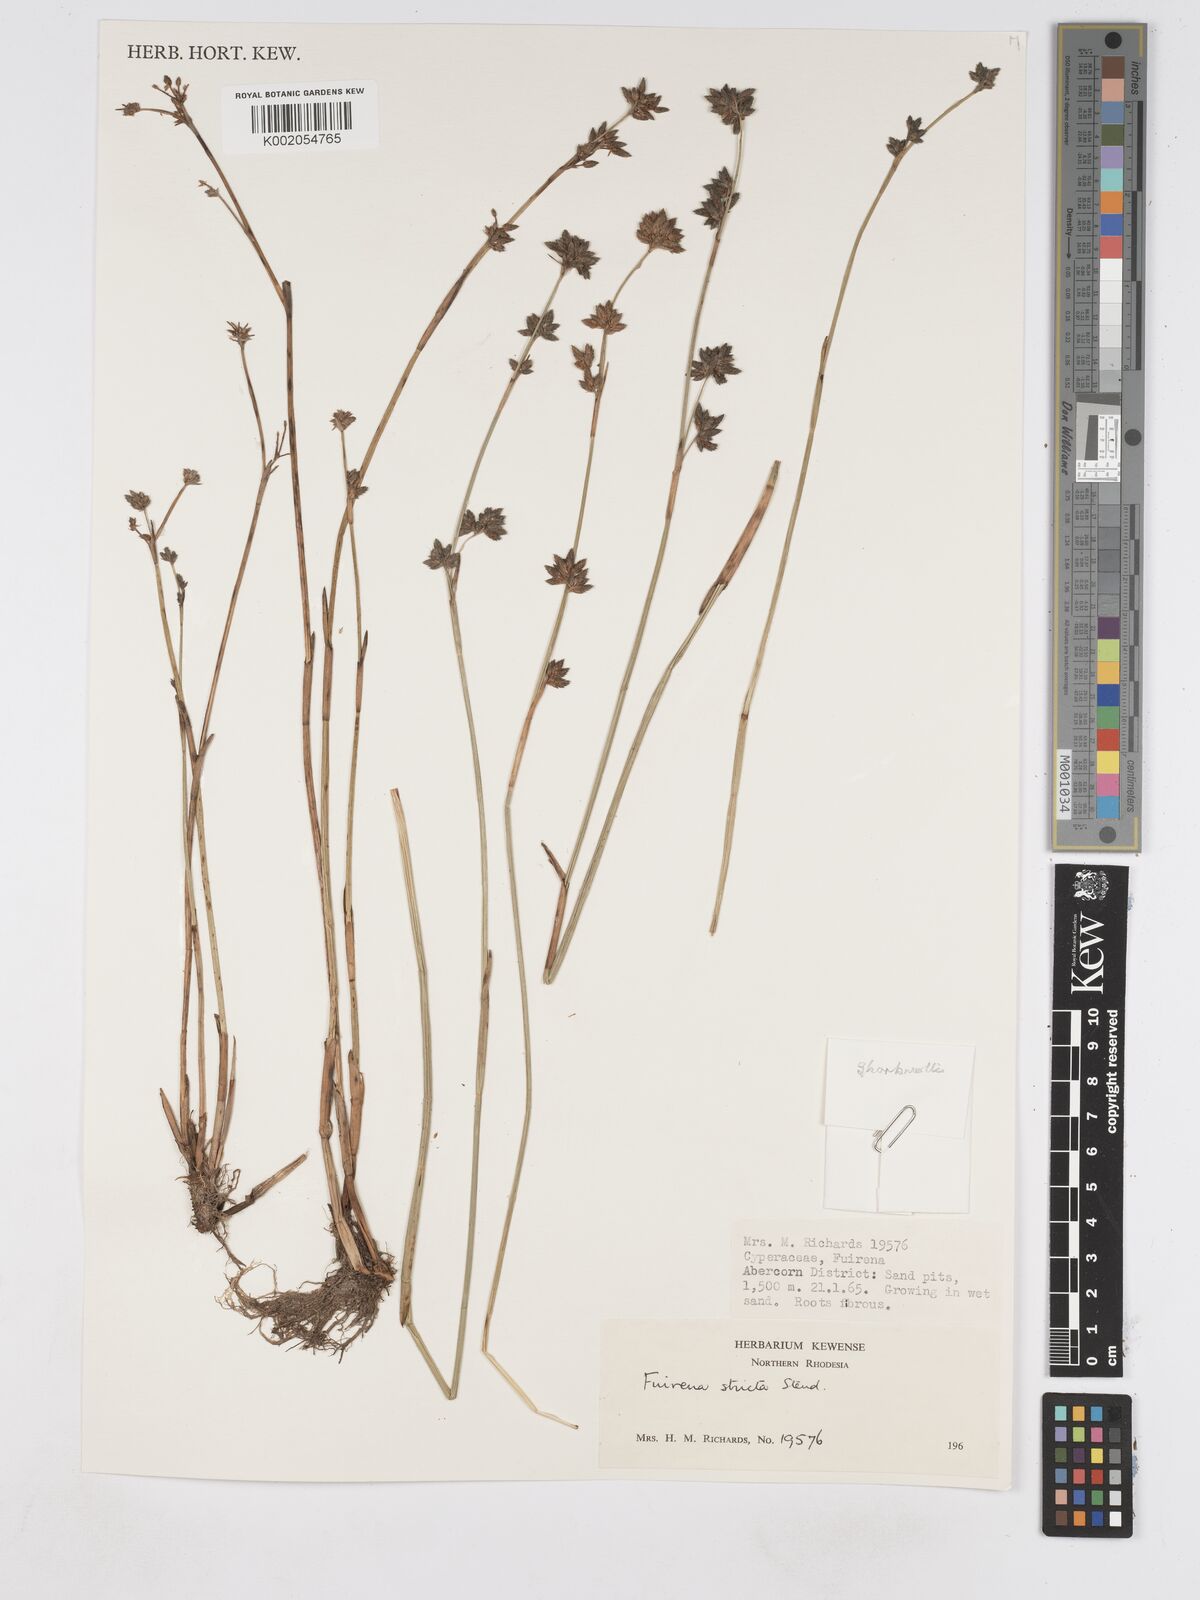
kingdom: Plantae
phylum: Tracheophyta
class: Liliopsida
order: Poales
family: Cyperaceae
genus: Fuirena
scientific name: Fuirena stricta
